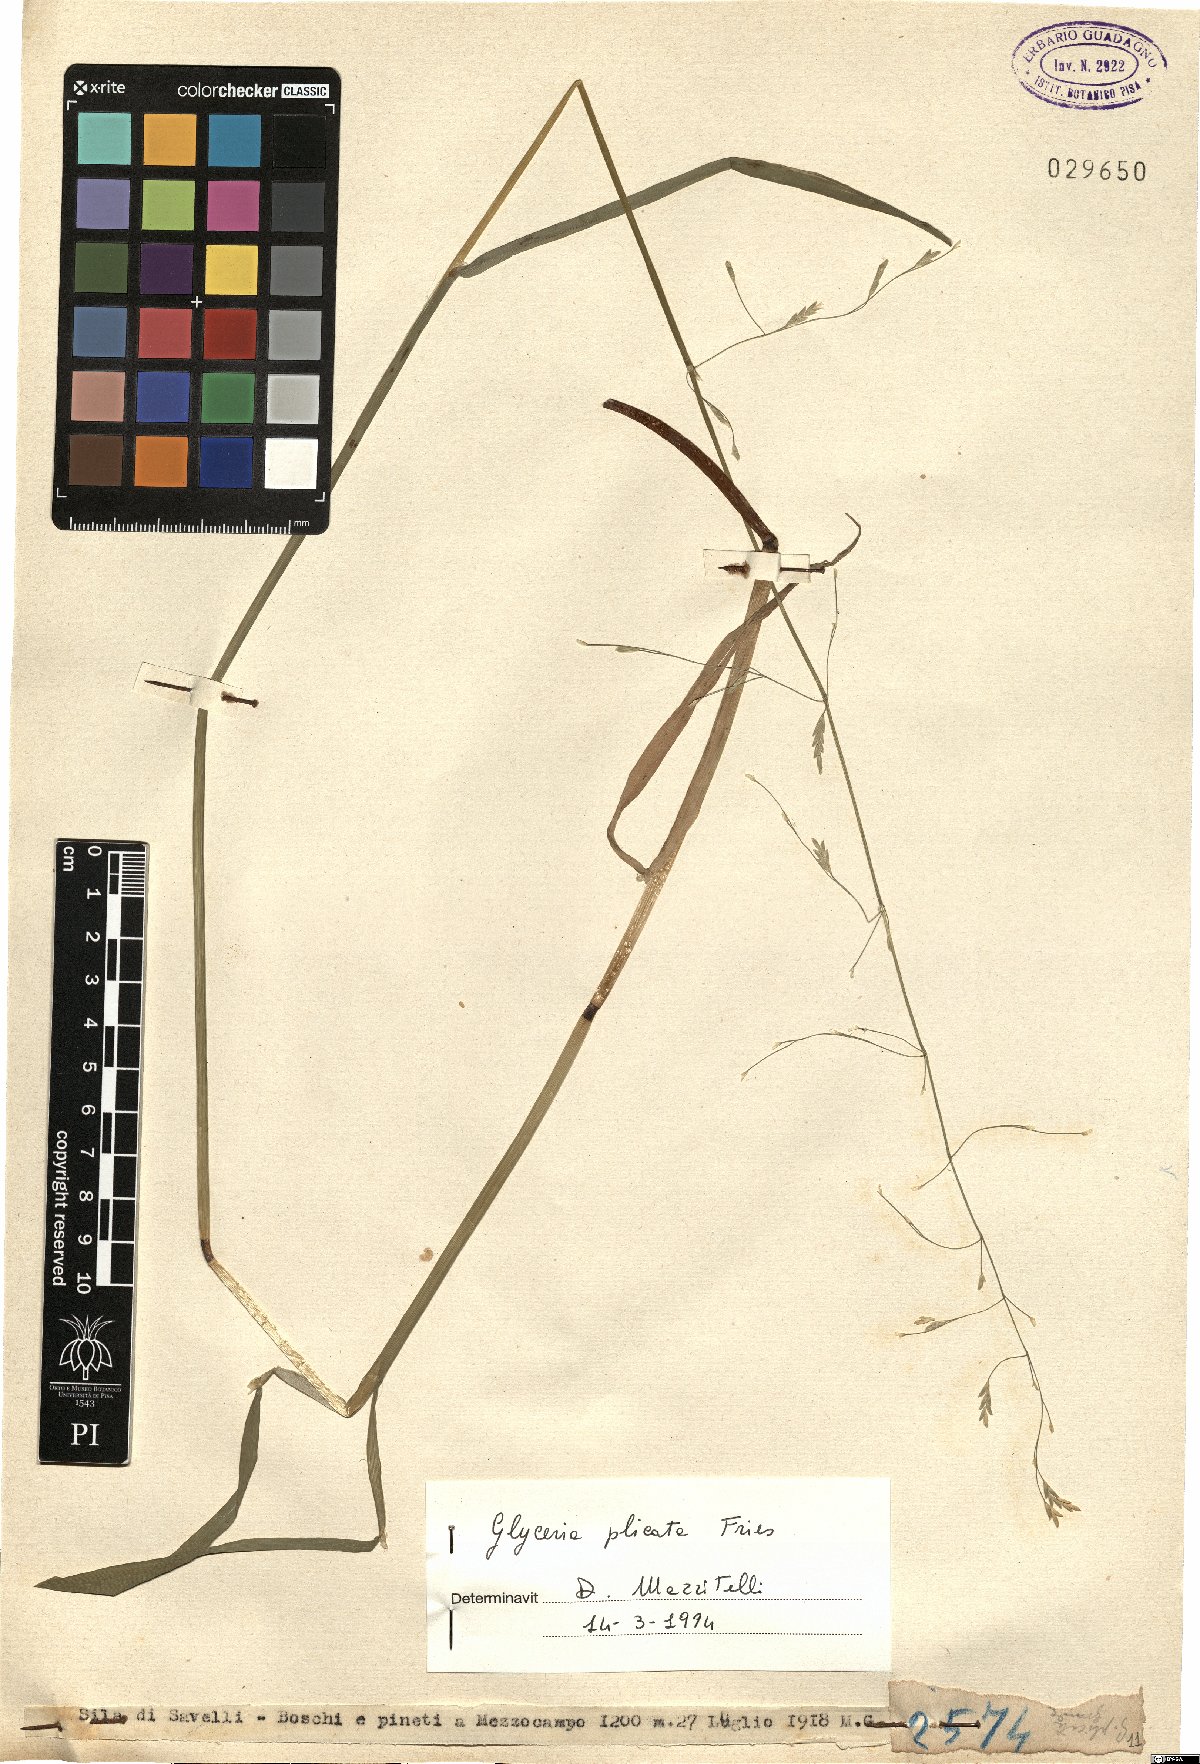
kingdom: Plantae
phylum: Tracheophyta
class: Liliopsida
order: Poales
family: Poaceae
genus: Glyceria
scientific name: Glyceria notata
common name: Plicate sweet-grass
